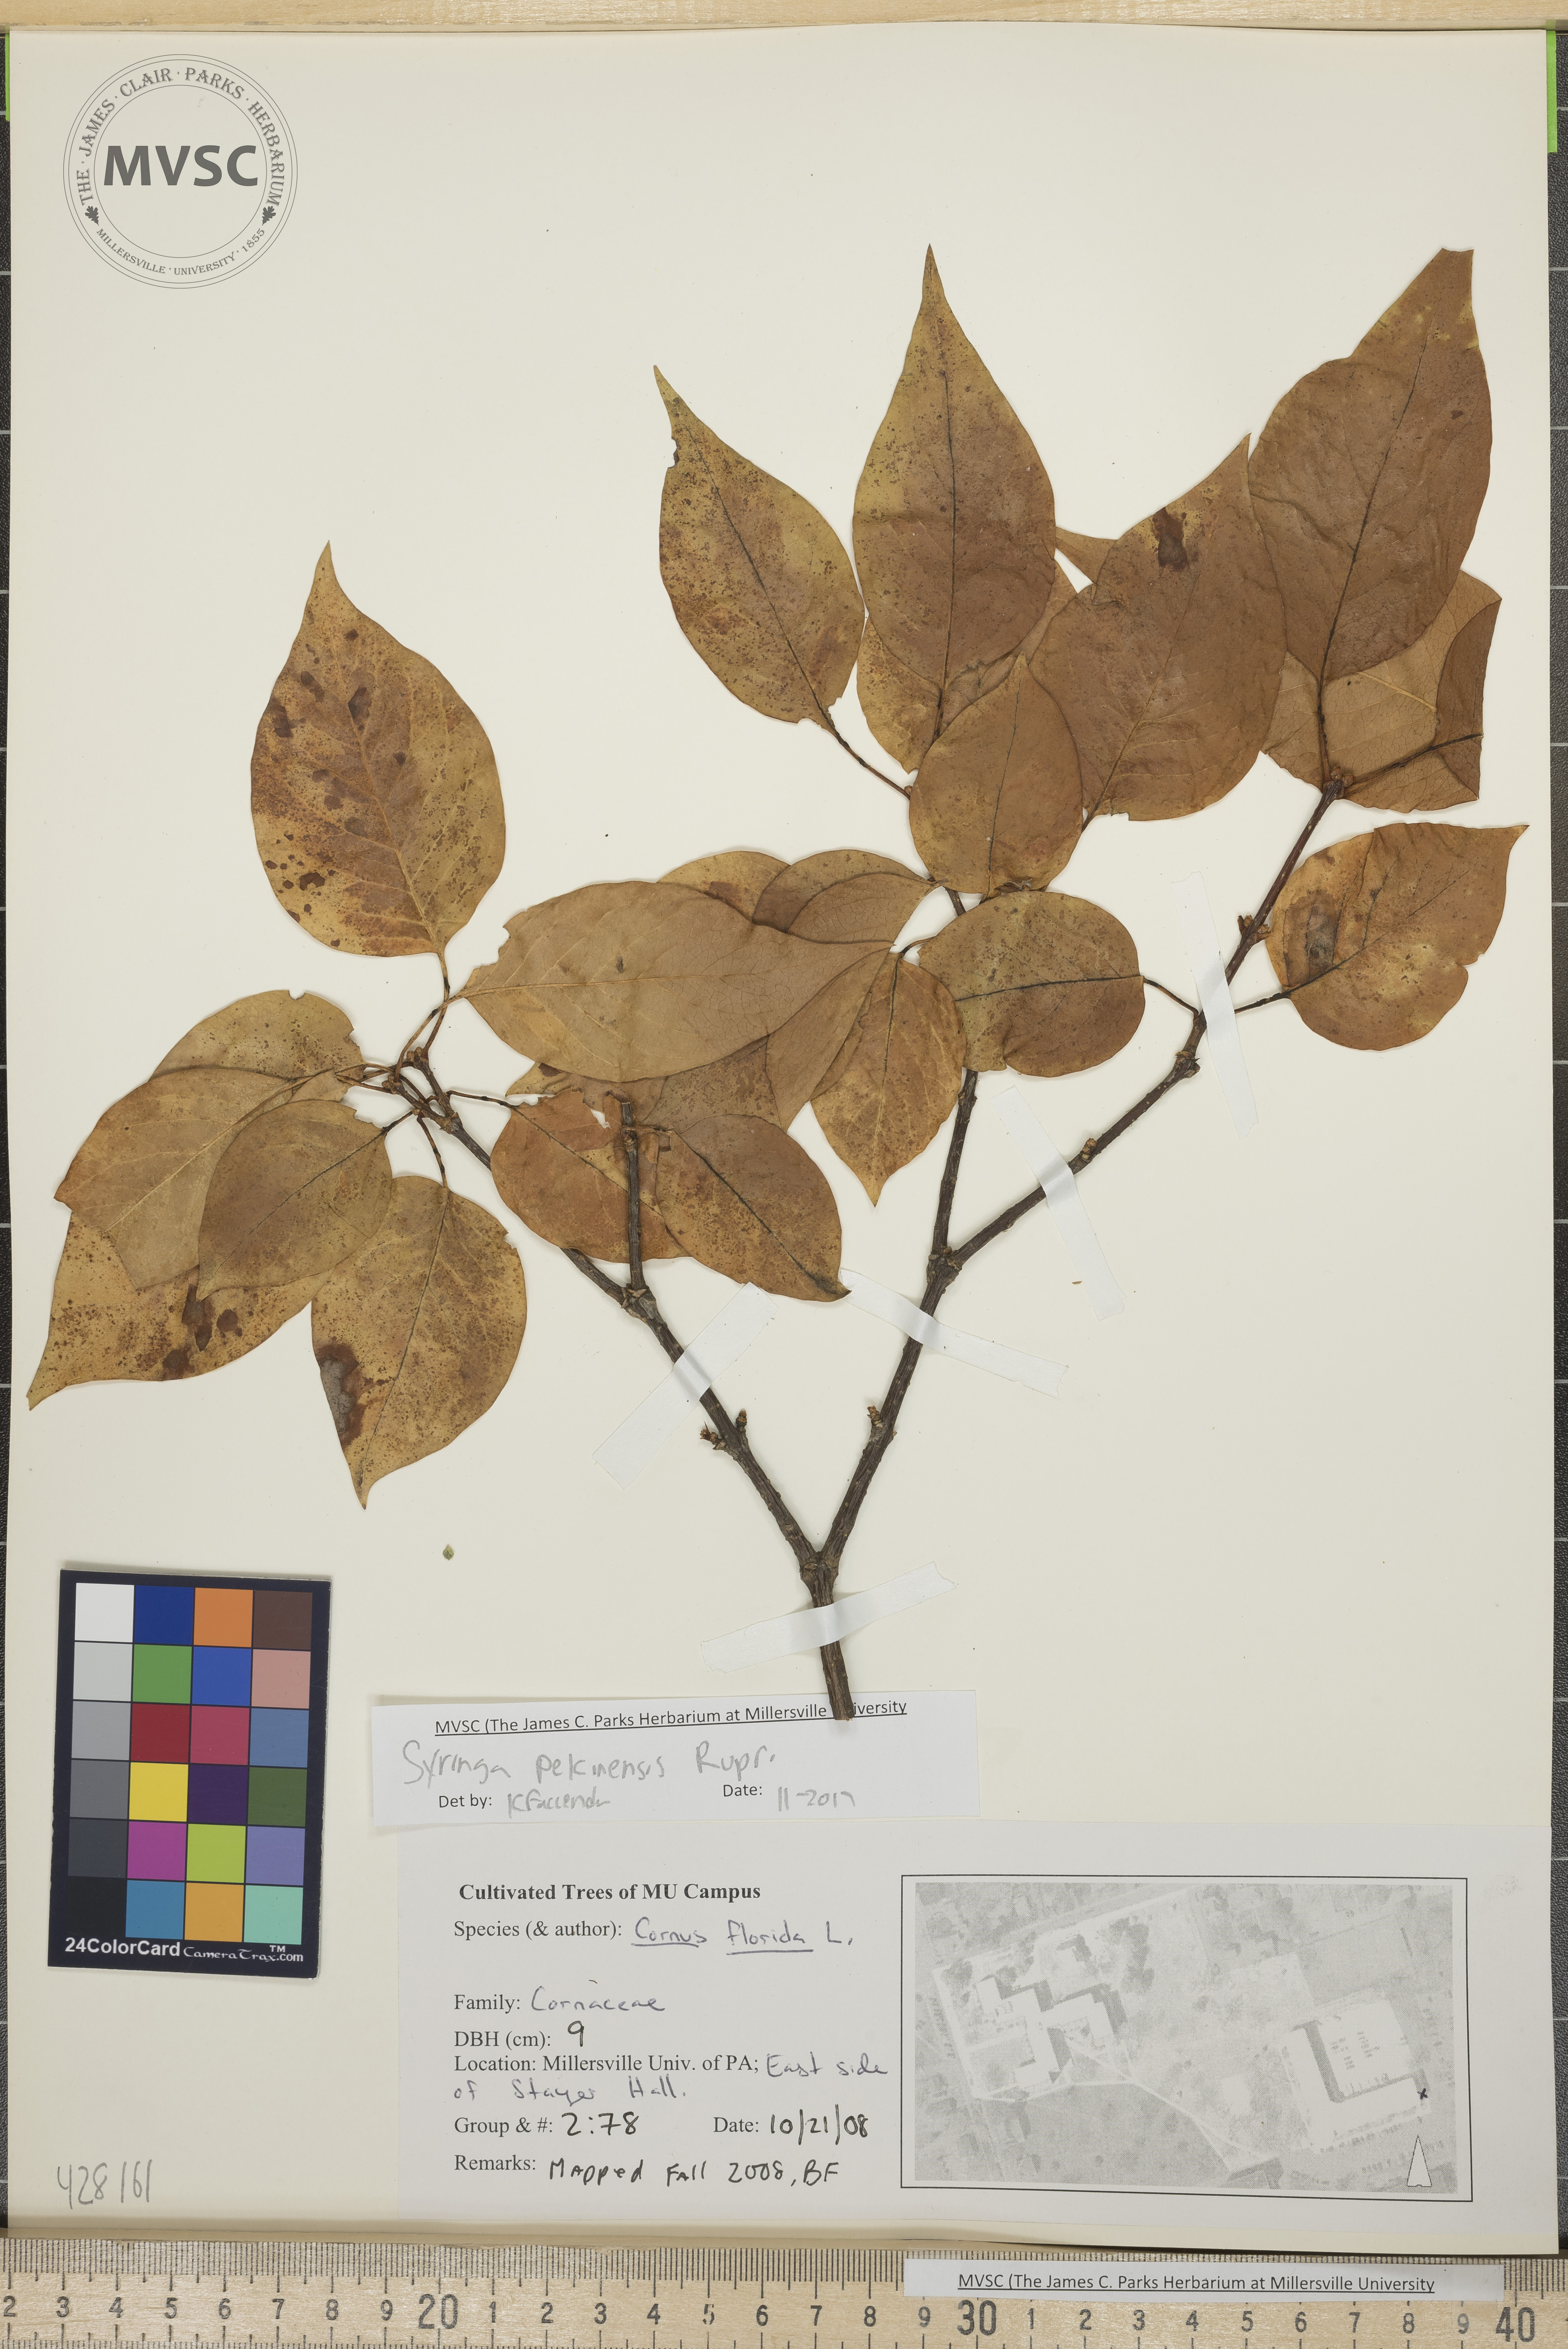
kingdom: Plantae
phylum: Tracheophyta
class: Magnoliopsida
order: Lamiales
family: Oleaceae
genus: Syringa
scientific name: Syringa reticulata
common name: Lilac
